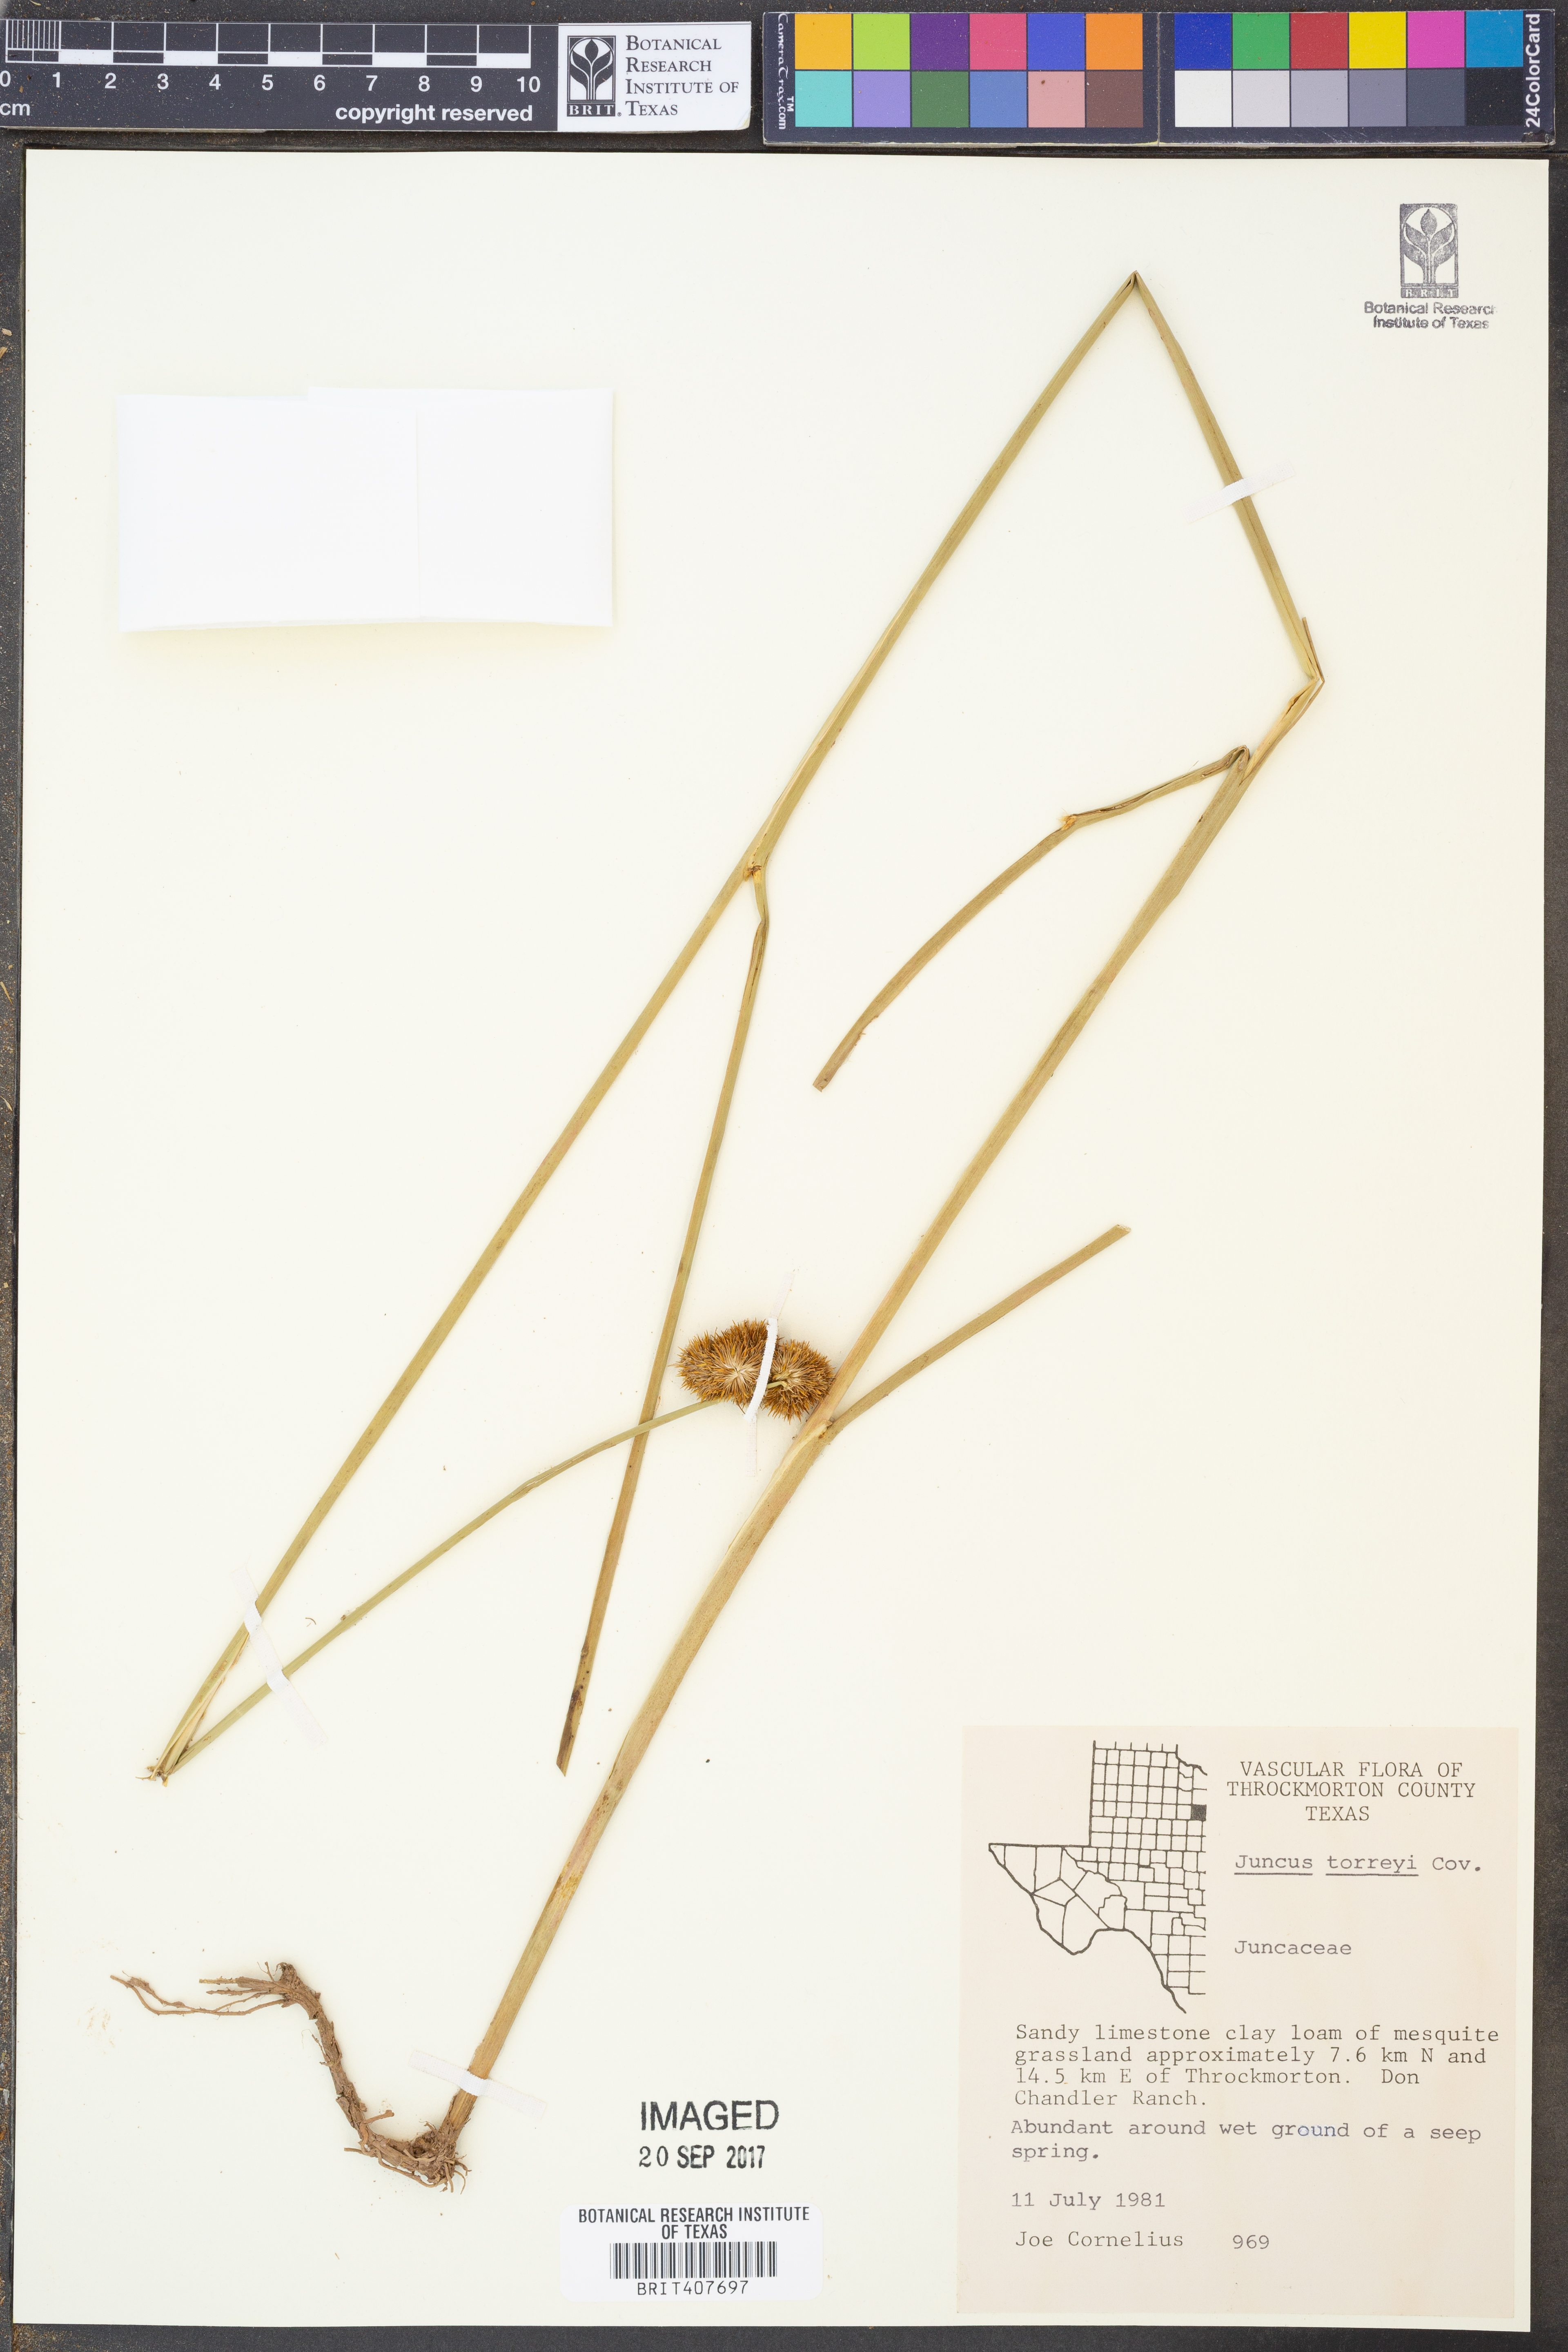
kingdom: Plantae
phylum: Tracheophyta
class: Liliopsida
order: Poales
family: Juncaceae
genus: Juncus
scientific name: Juncus torreyi
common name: Torrey's rush
